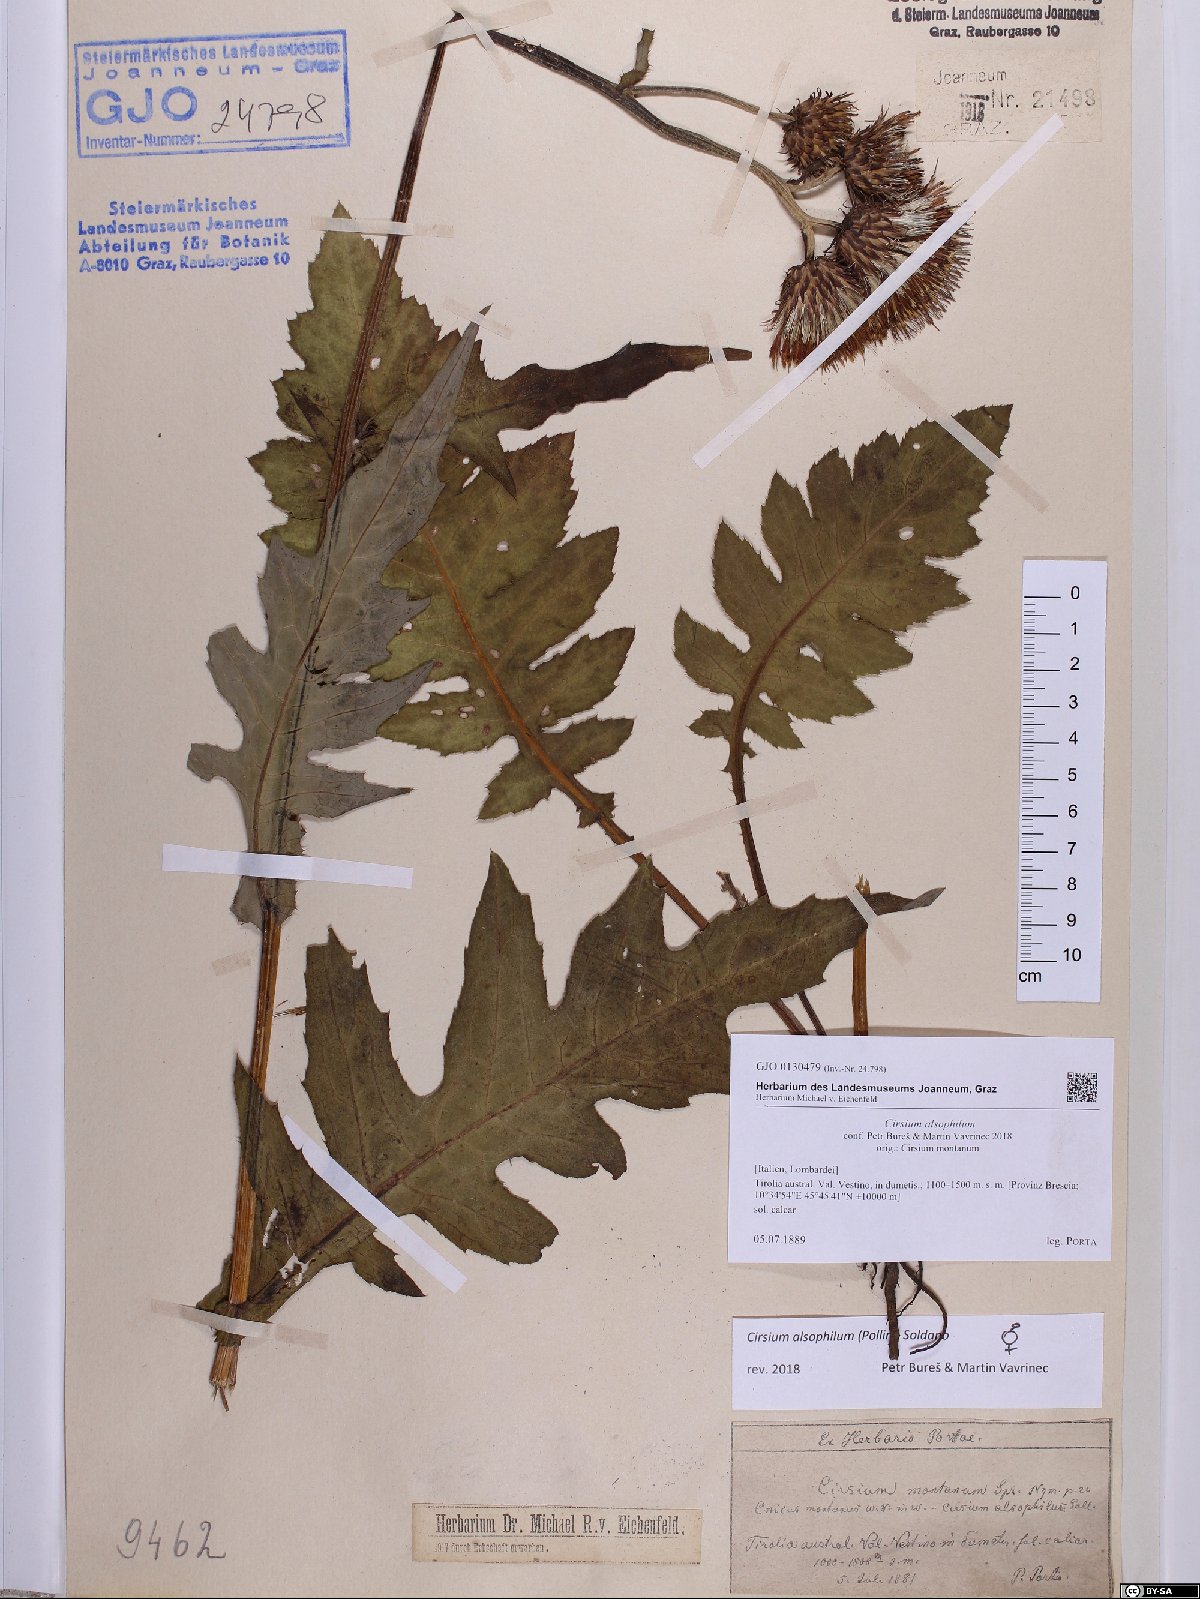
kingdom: Plantae
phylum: Tracheophyta
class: Magnoliopsida
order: Asterales
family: Asteraceae
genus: Cirsium
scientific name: Cirsium alsophilum
